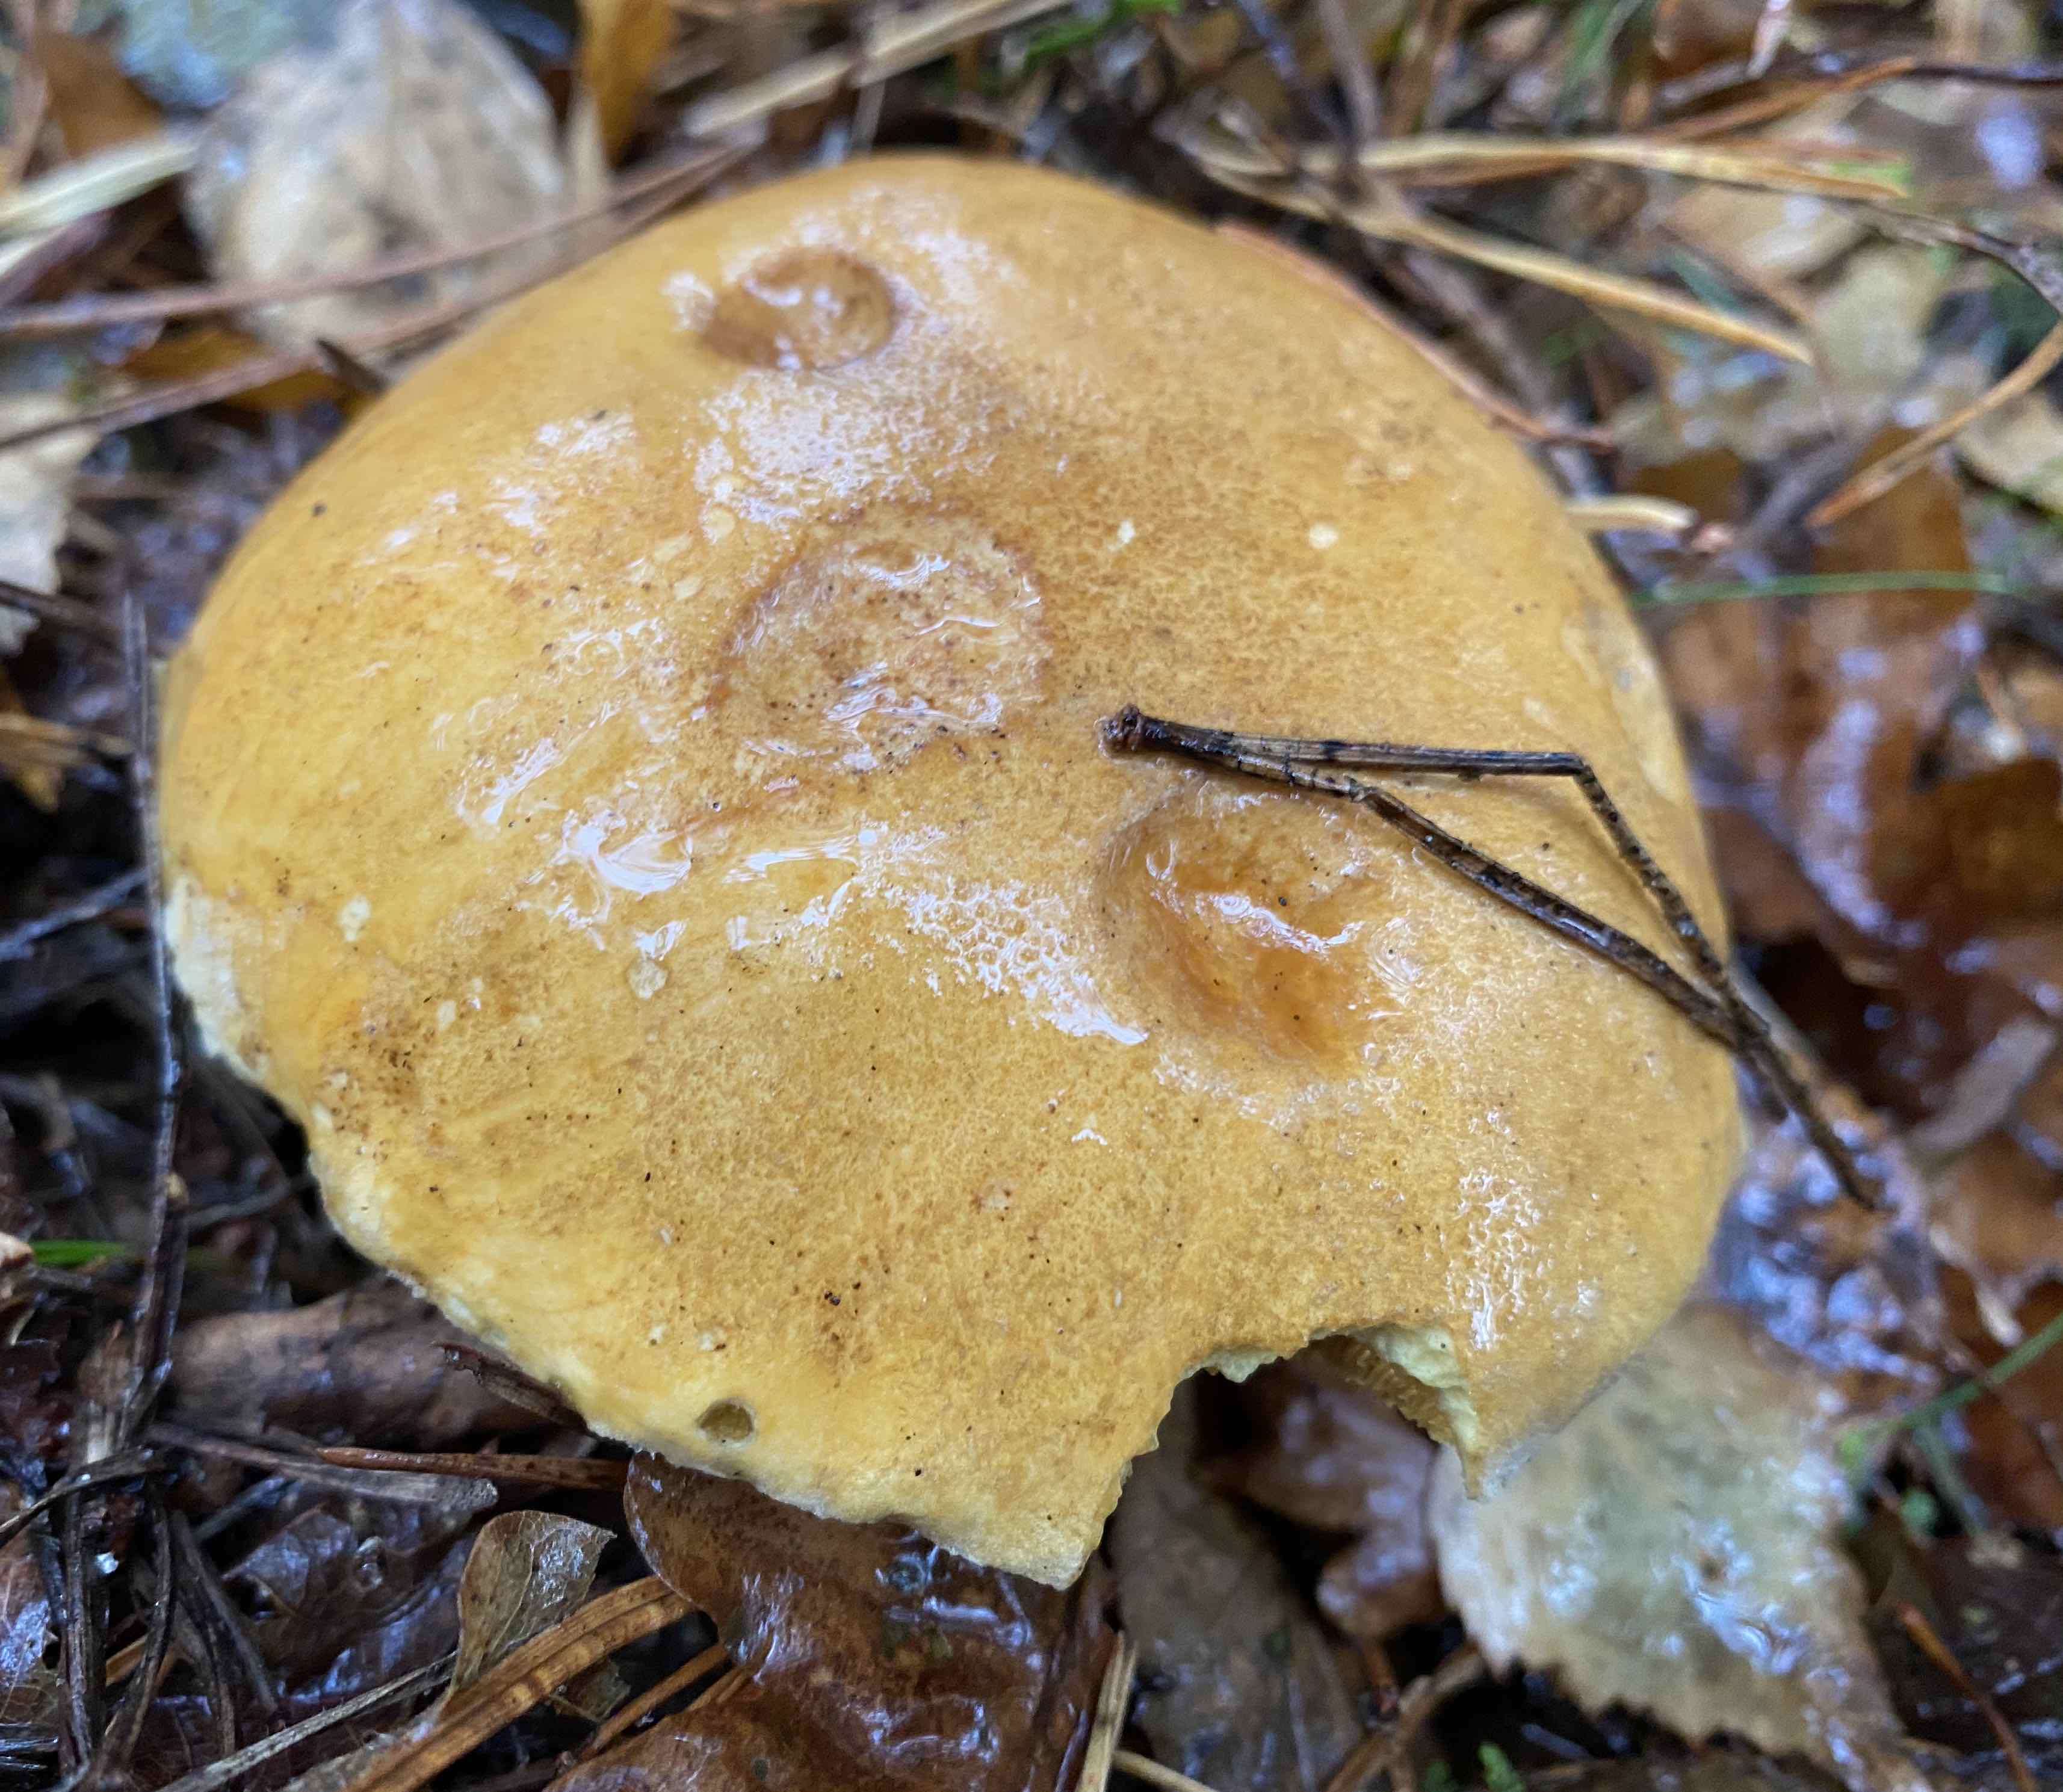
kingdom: Fungi
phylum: Basidiomycota
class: Agaricomycetes
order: Boletales
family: Suillaceae
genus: Suillus
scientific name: Suillus variegatus
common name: broget slimrørhat
